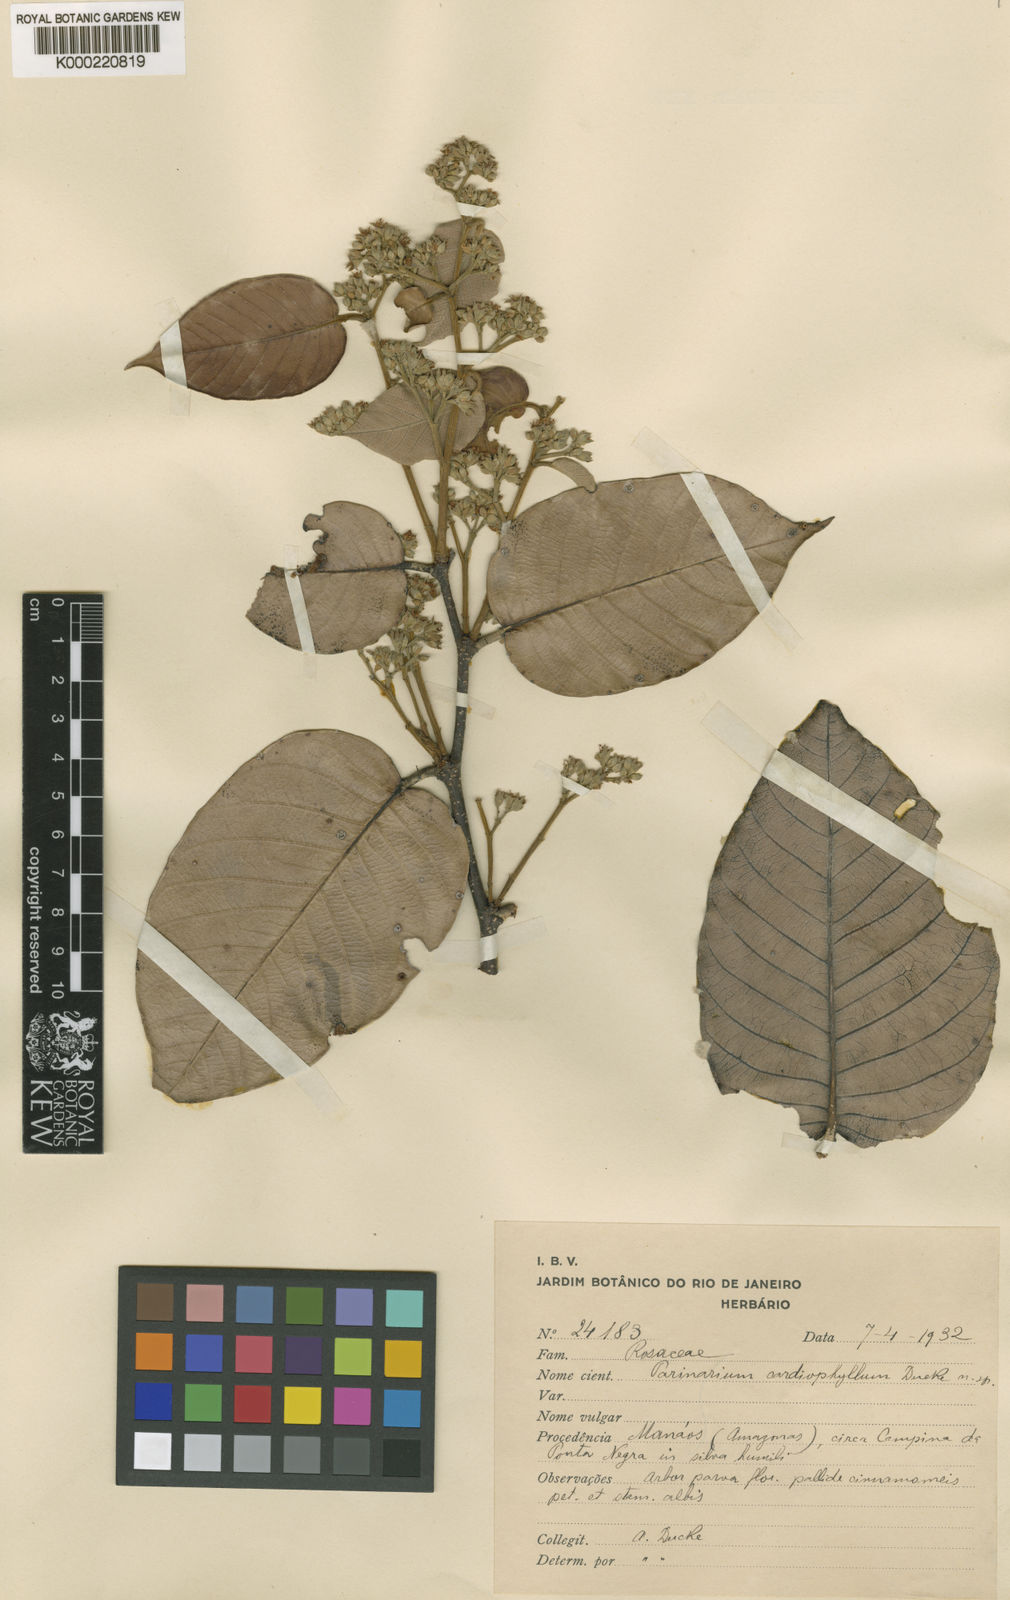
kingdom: Plantae
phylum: Tracheophyta
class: Magnoliopsida
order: Malpighiales
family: Chrysobalanaceae
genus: Parinari
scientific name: Parinari cardiophylla
